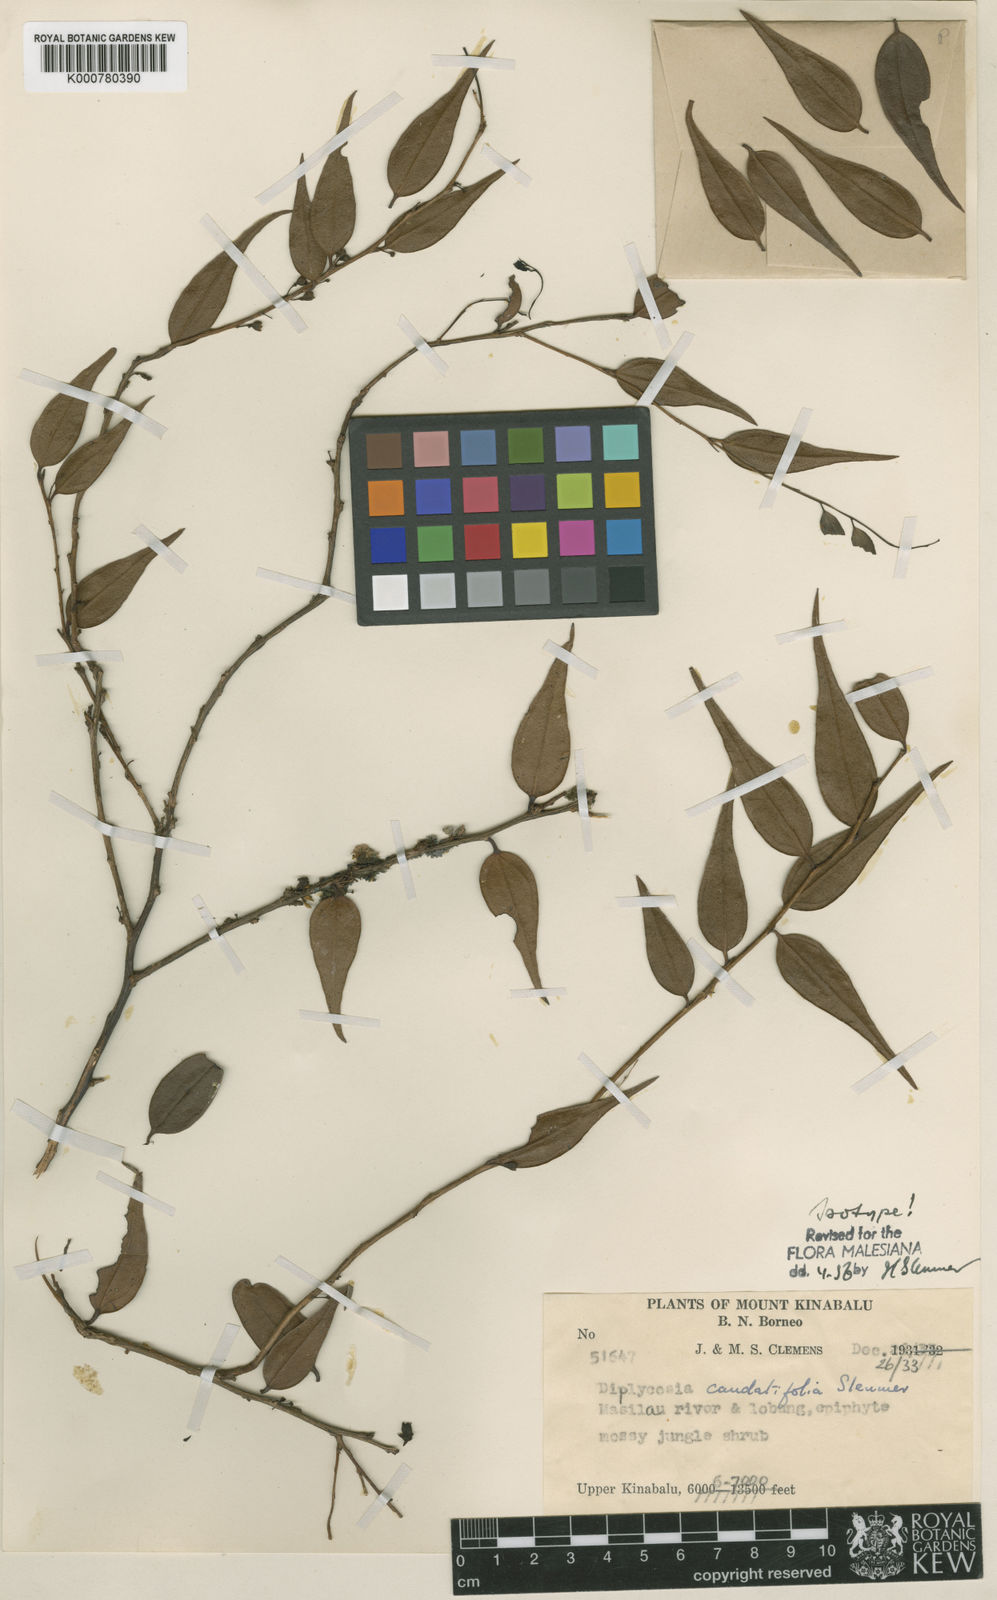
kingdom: Plantae
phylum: Tracheophyta
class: Magnoliopsida
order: Ericales
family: Ericaceae
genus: Gaultheria
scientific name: Gaultheria caudatifolia
